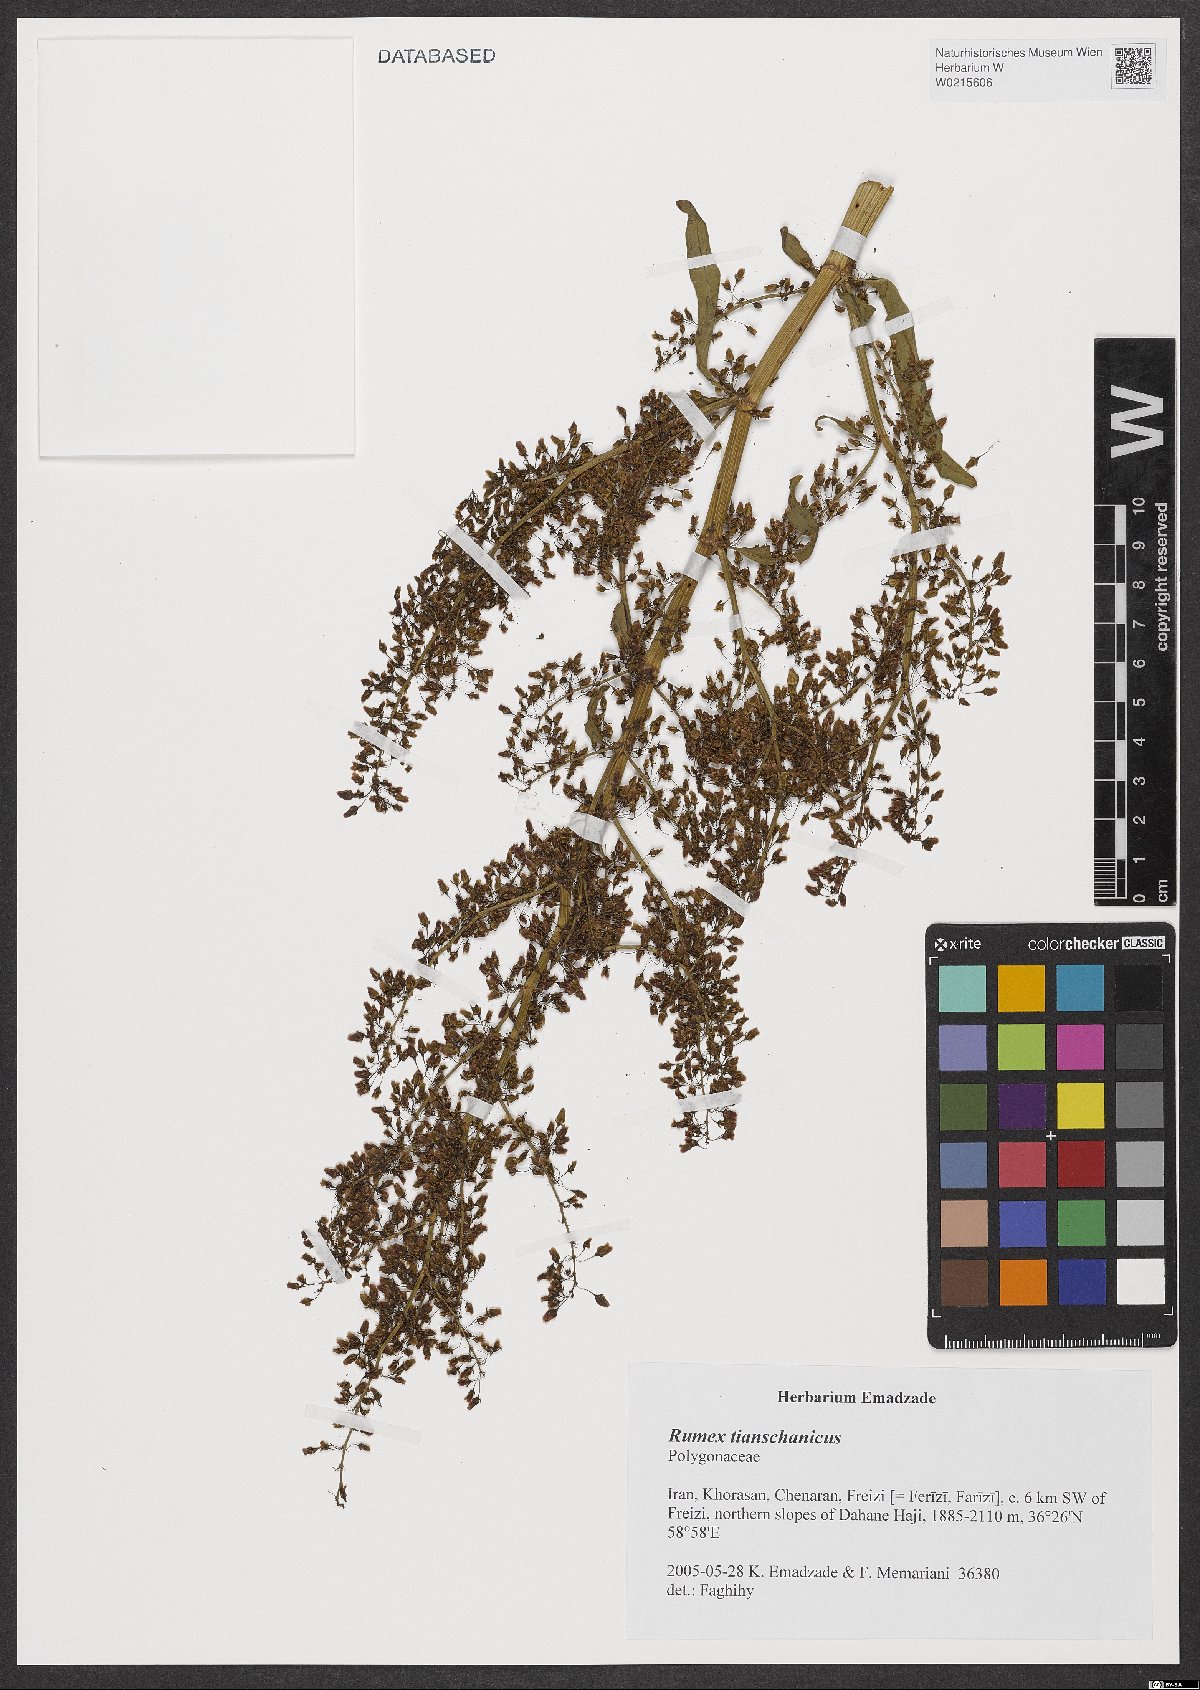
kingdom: Plantae
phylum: Tracheophyta
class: Magnoliopsida
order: Caryophyllales
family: Polygonaceae
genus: Rumex
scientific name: Rumex tianschanicus
